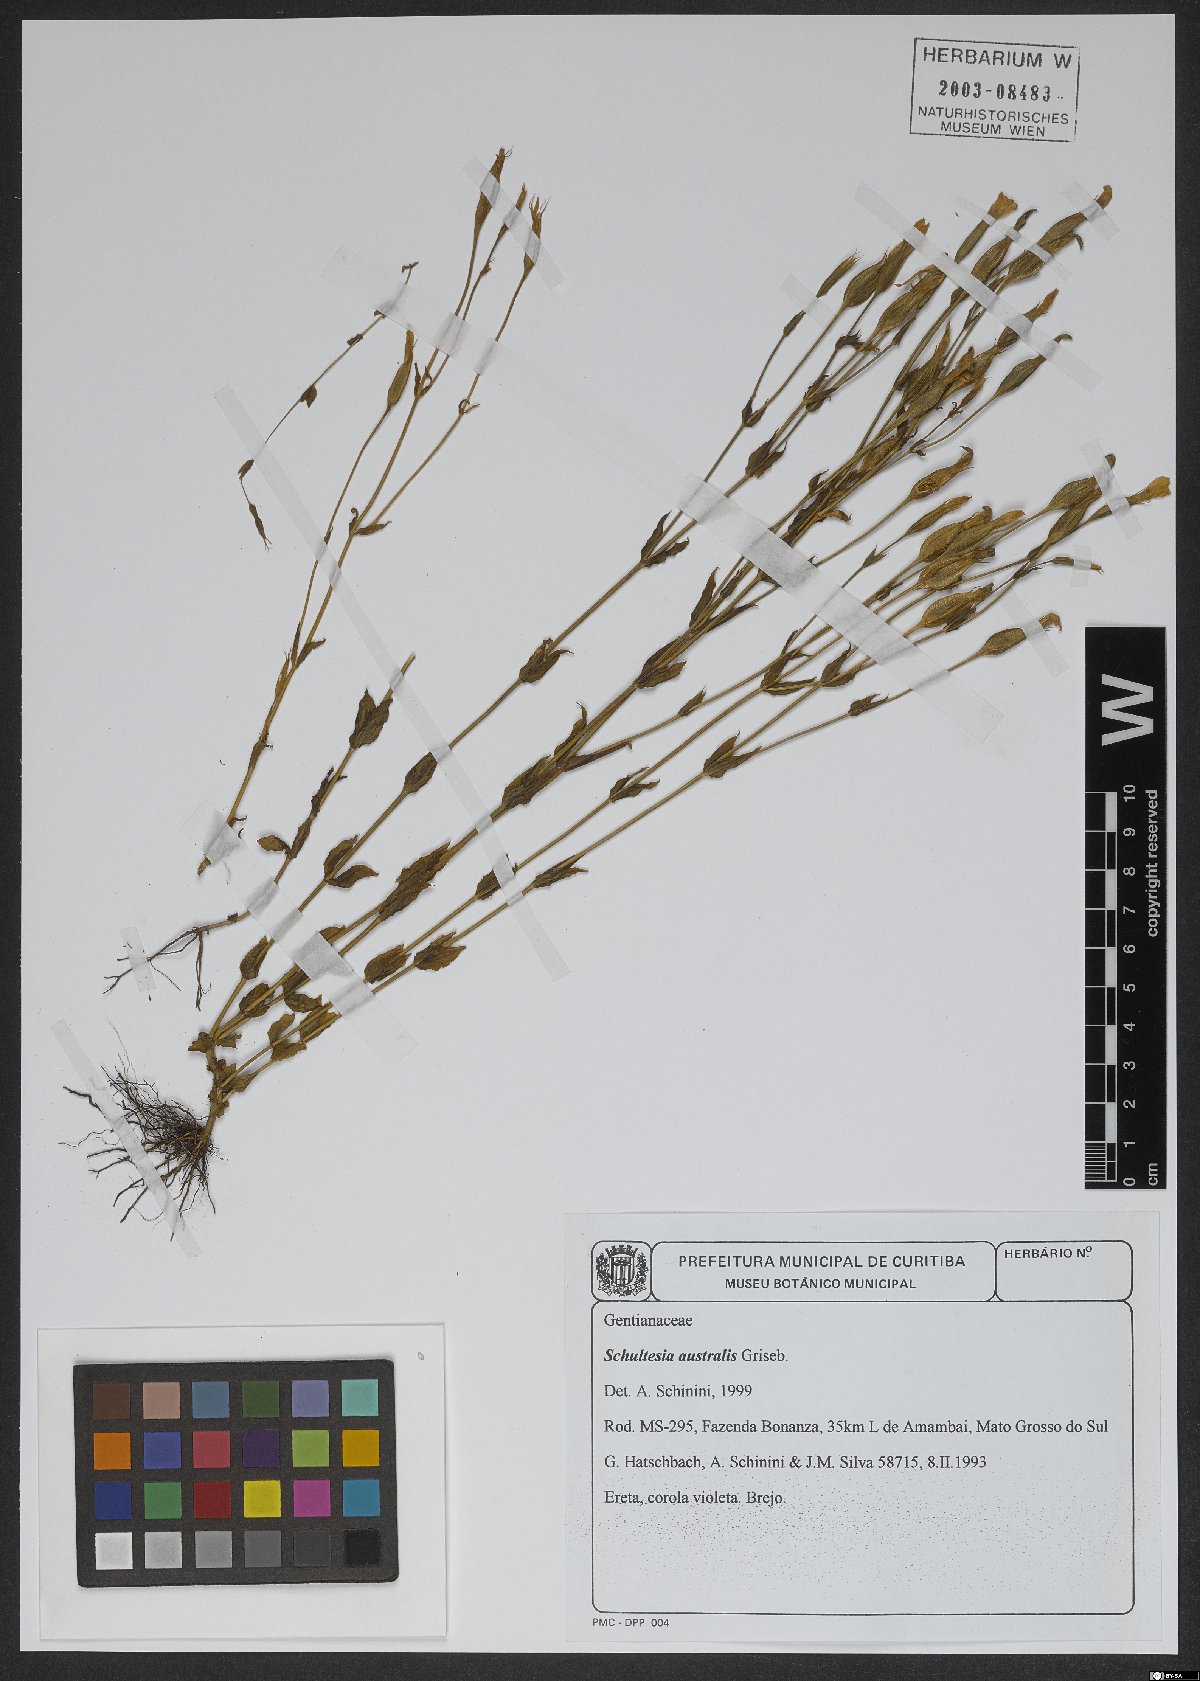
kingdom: Plantae
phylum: Tracheophyta
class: Magnoliopsida
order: Gentianales
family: Gentianaceae
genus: Schultesia
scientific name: Schultesia australis
